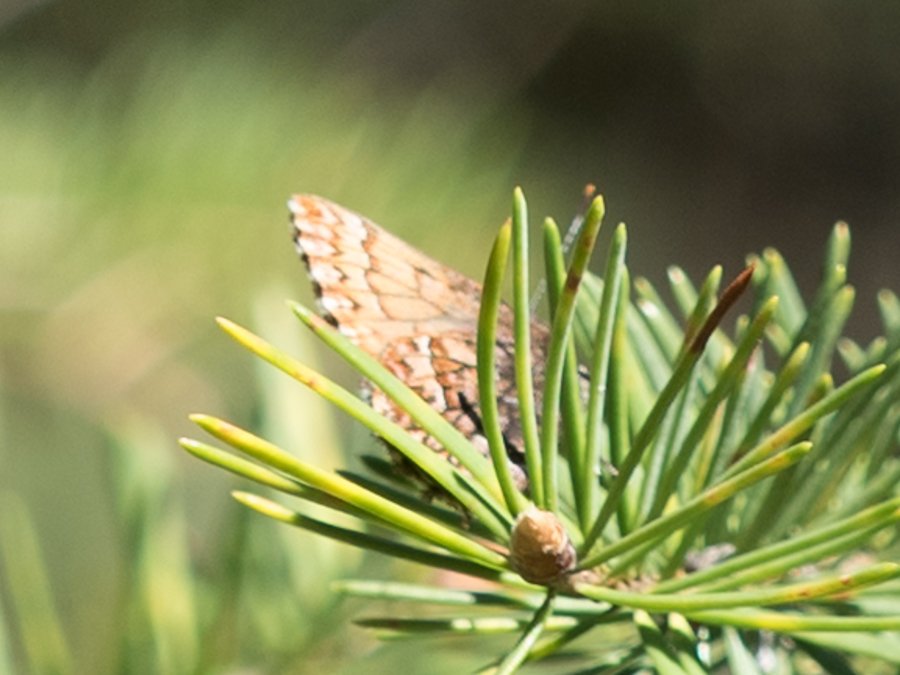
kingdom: Animalia
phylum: Arthropoda
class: Insecta
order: Lepidoptera
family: Nymphalidae
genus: Boloria
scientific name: Boloria selene
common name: Silver-bordered Fritillary
